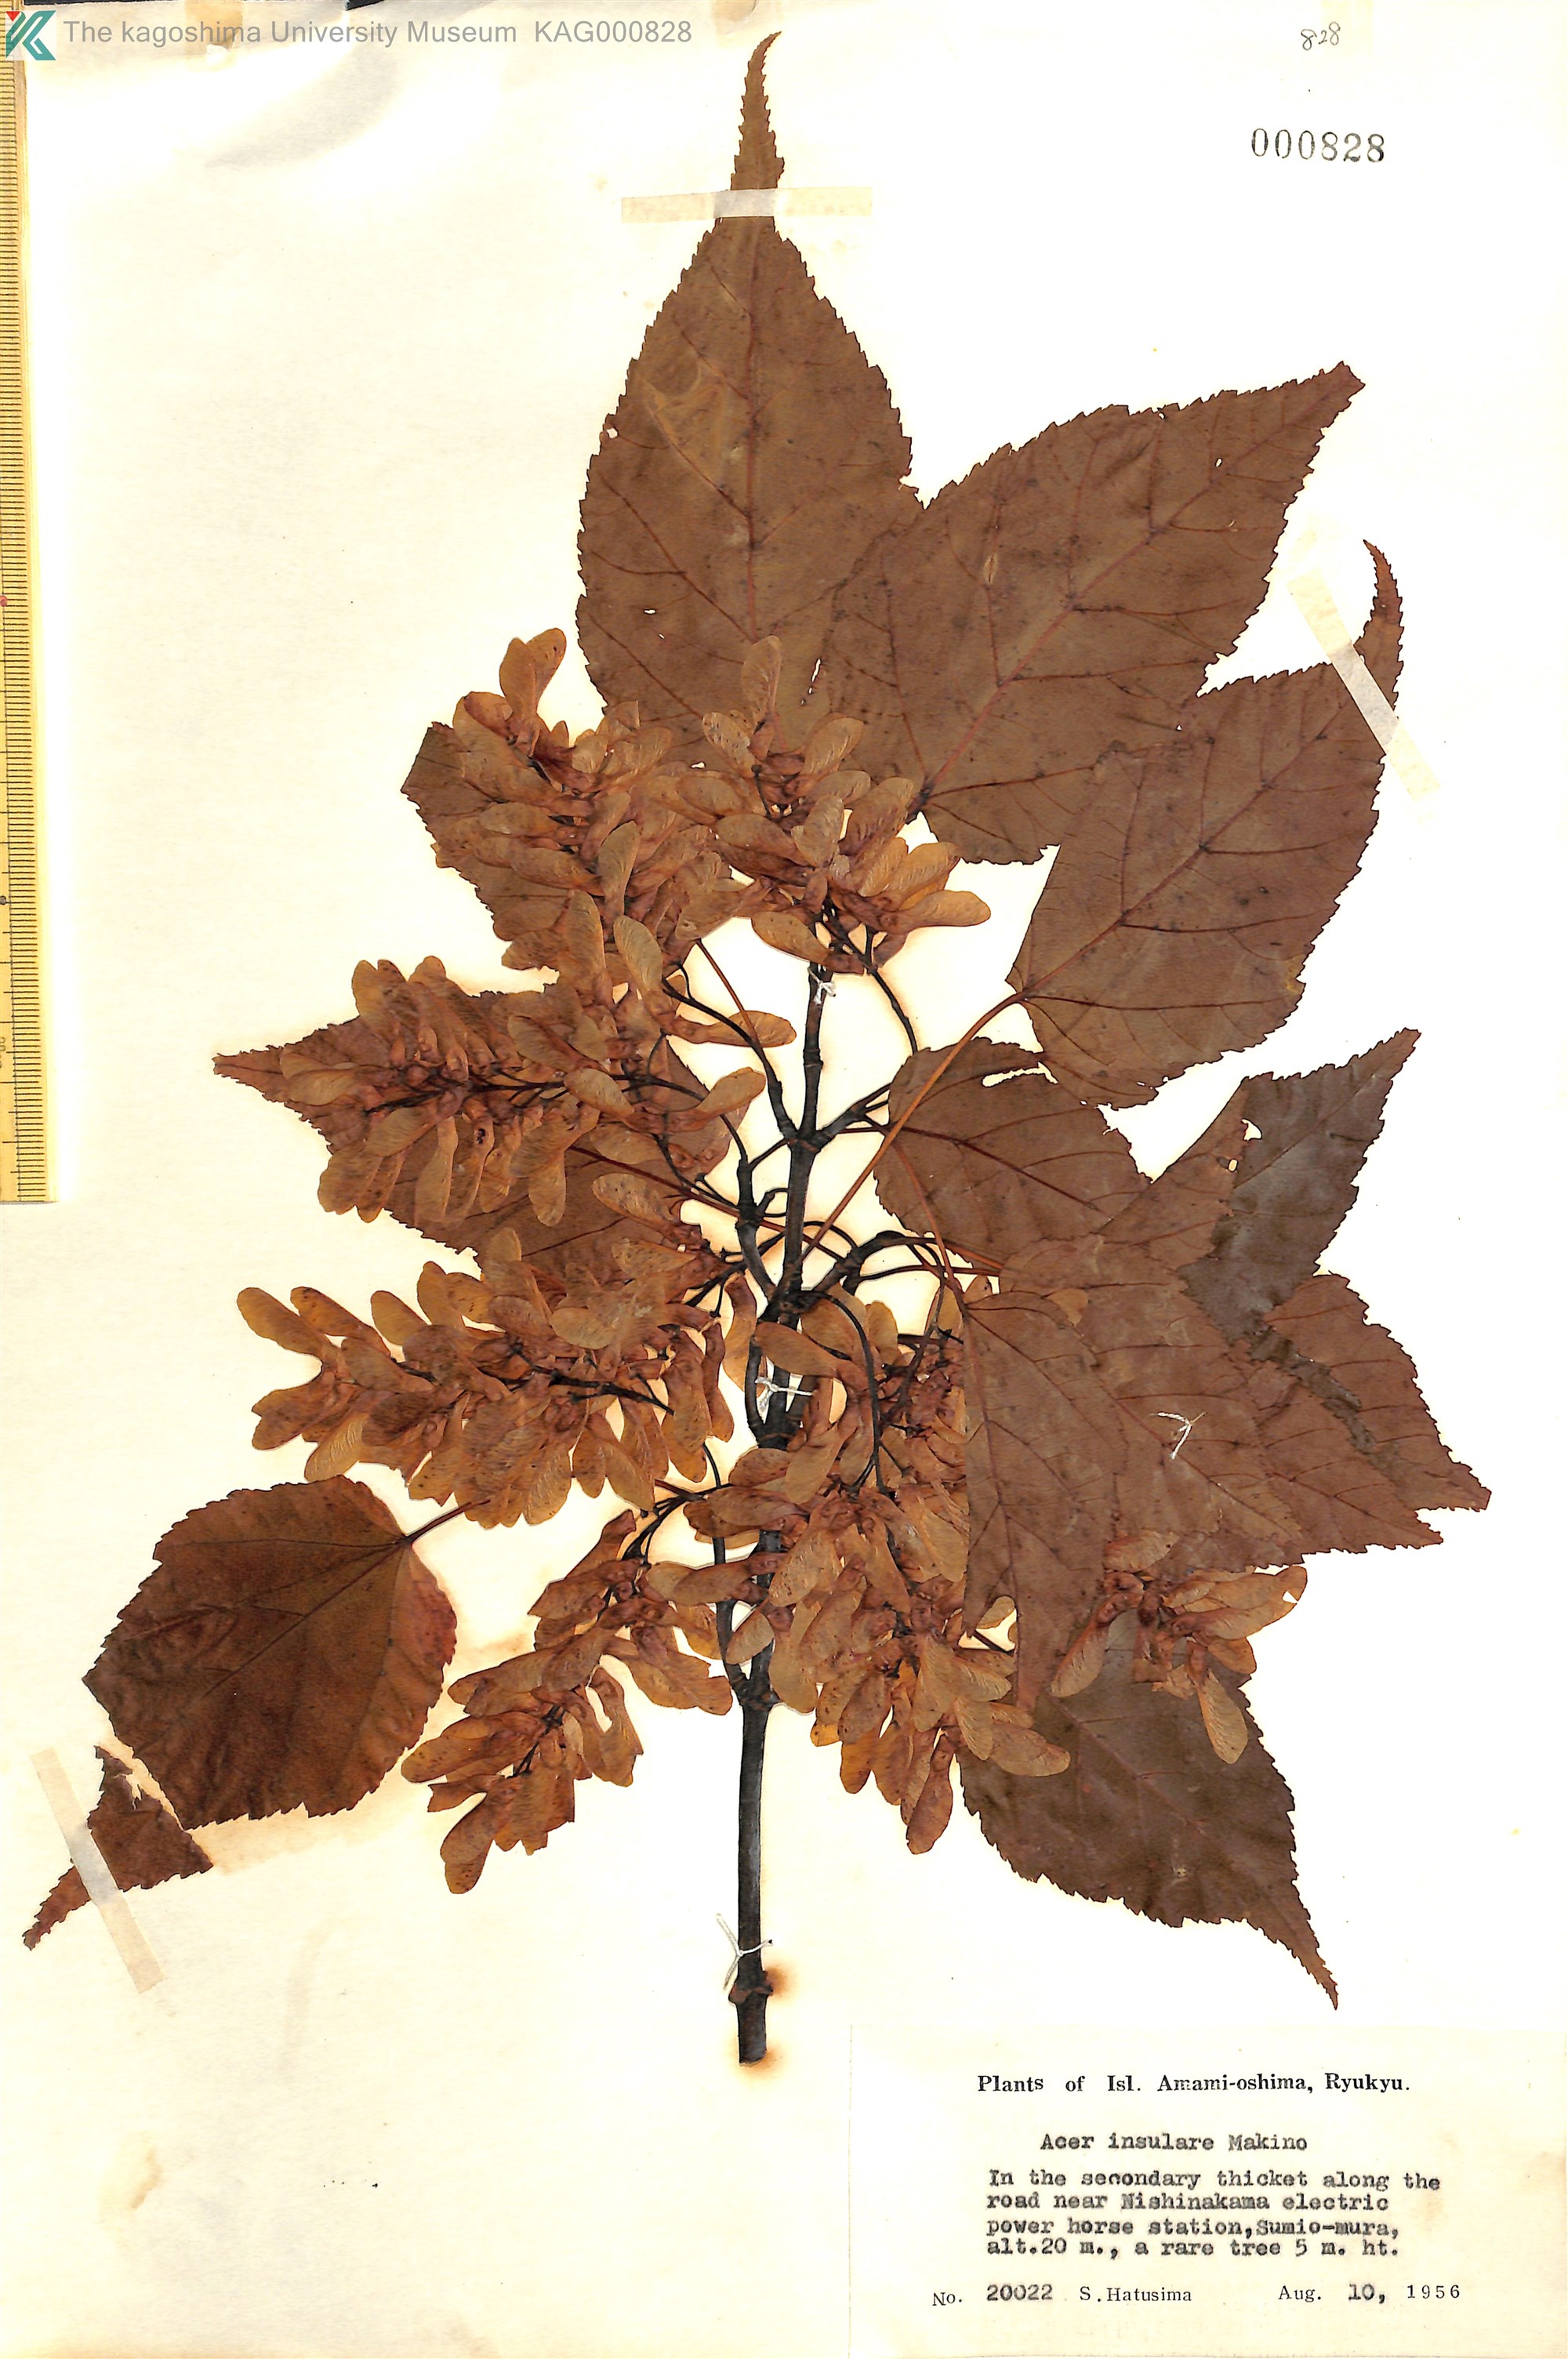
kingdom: Plantae
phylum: Tracheophyta
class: Magnoliopsida
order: Sapindales
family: Sapindaceae
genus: Acer
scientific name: Acer caudatifolium
